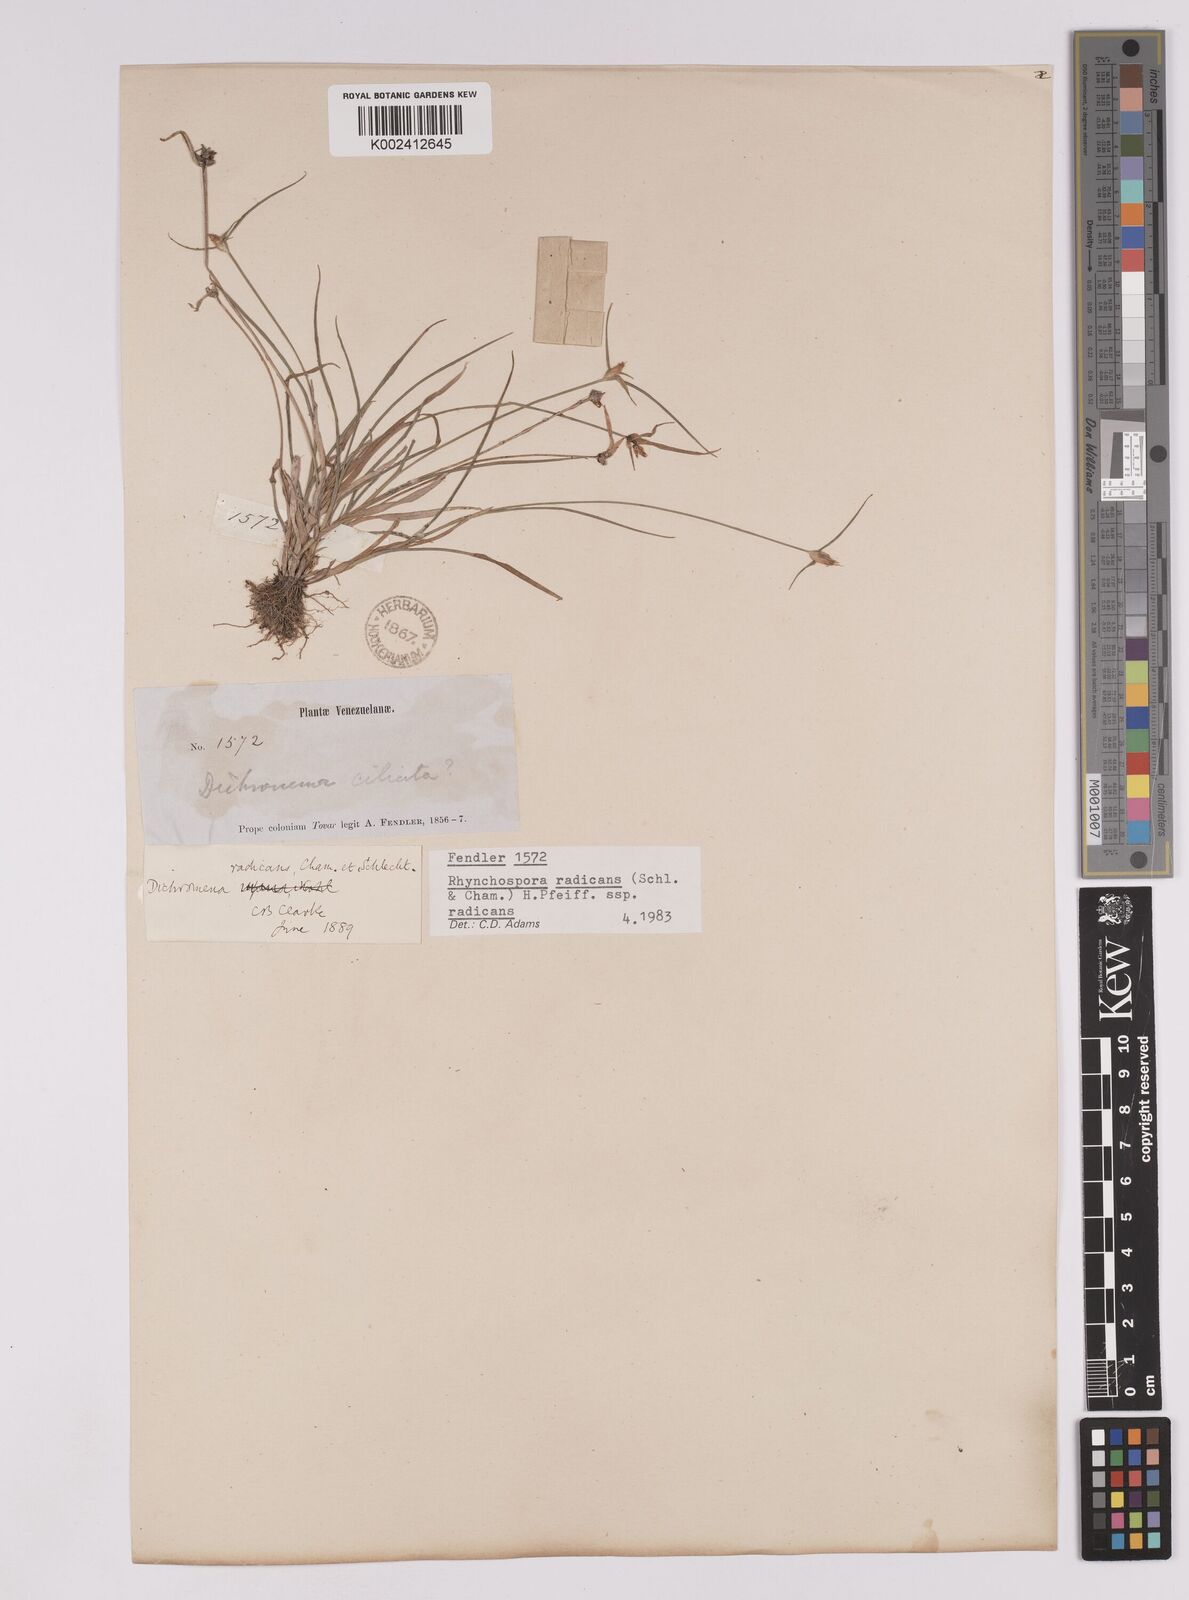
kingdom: Plantae
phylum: Tracheophyta
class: Liliopsida
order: Poales
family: Cyperaceae
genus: Rhynchospora
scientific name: Rhynchospora radicans
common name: Tropical whitetop
